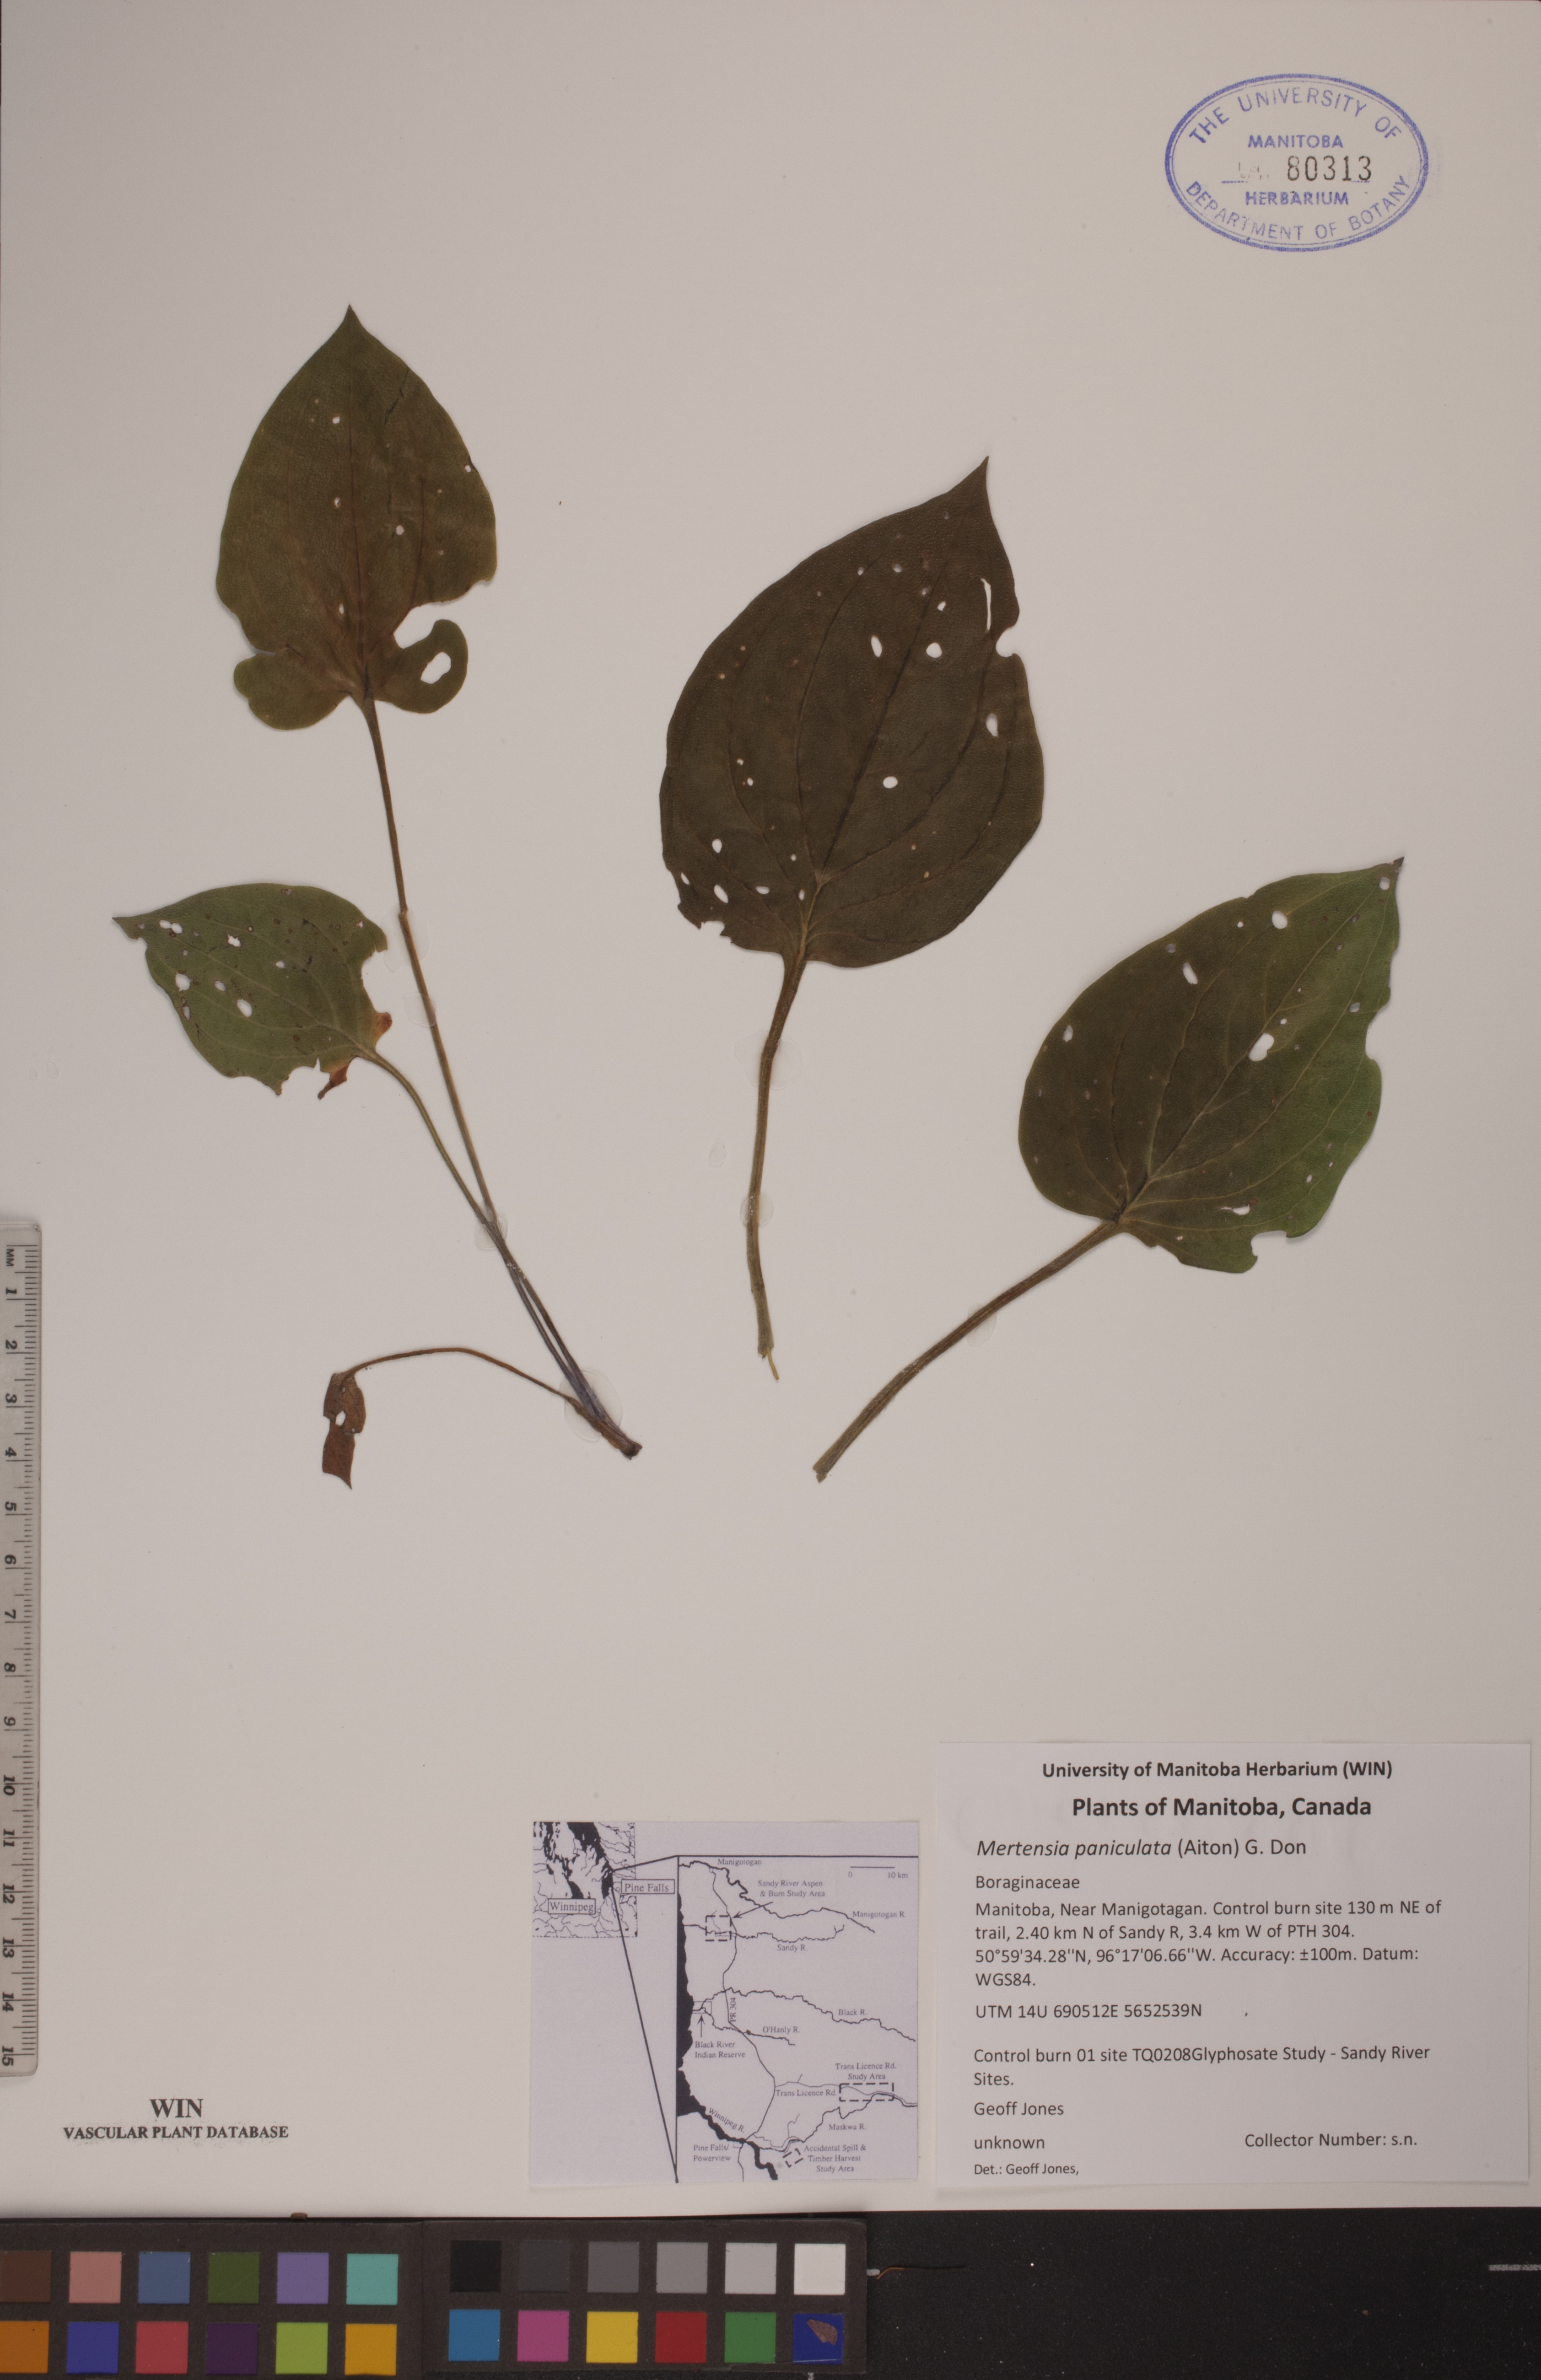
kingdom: Plantae
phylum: Tracheophyta
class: Magnoliopsida
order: Boraginales
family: Boraginaceae
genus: Mertensia
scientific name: Mertensia paniculata
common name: Panicled bluebells
